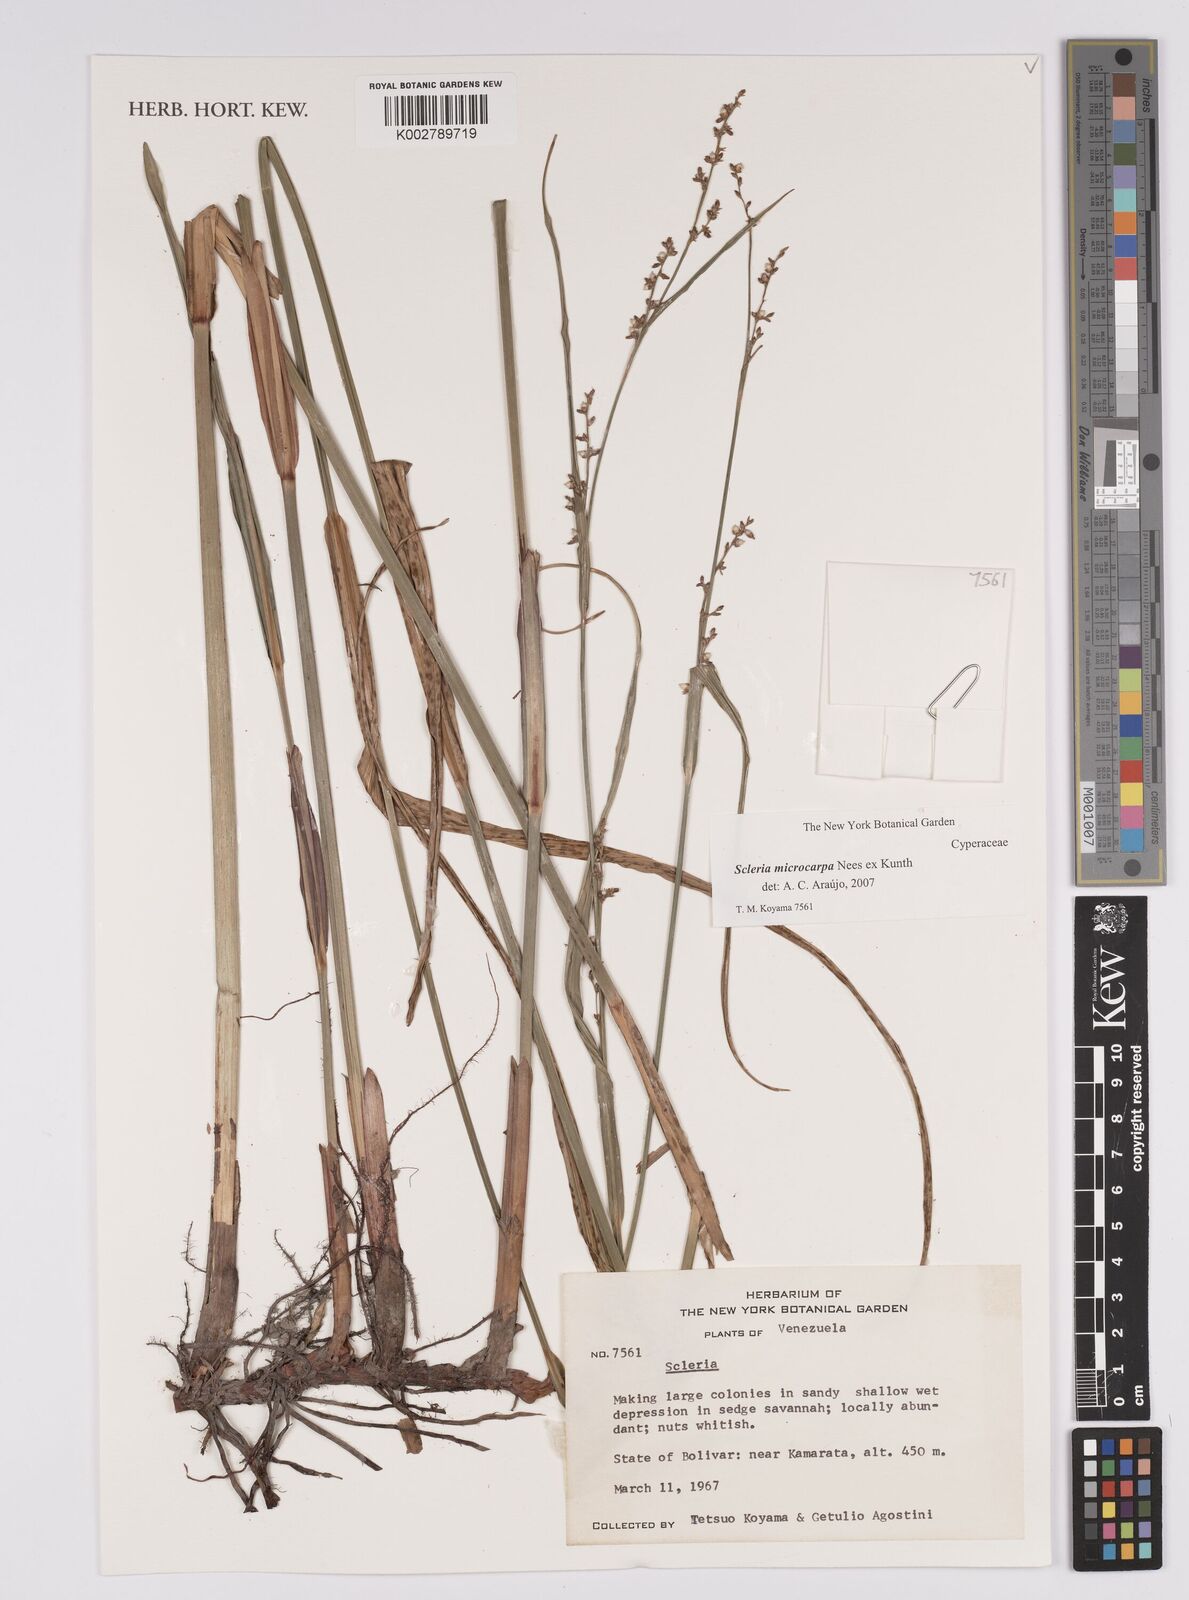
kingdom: Plantae
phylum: Tracheophyta
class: Liliopsida
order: Poales
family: Cyperaceae
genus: Scleria
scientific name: Scleria microcarpa
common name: Tropical nutrush
